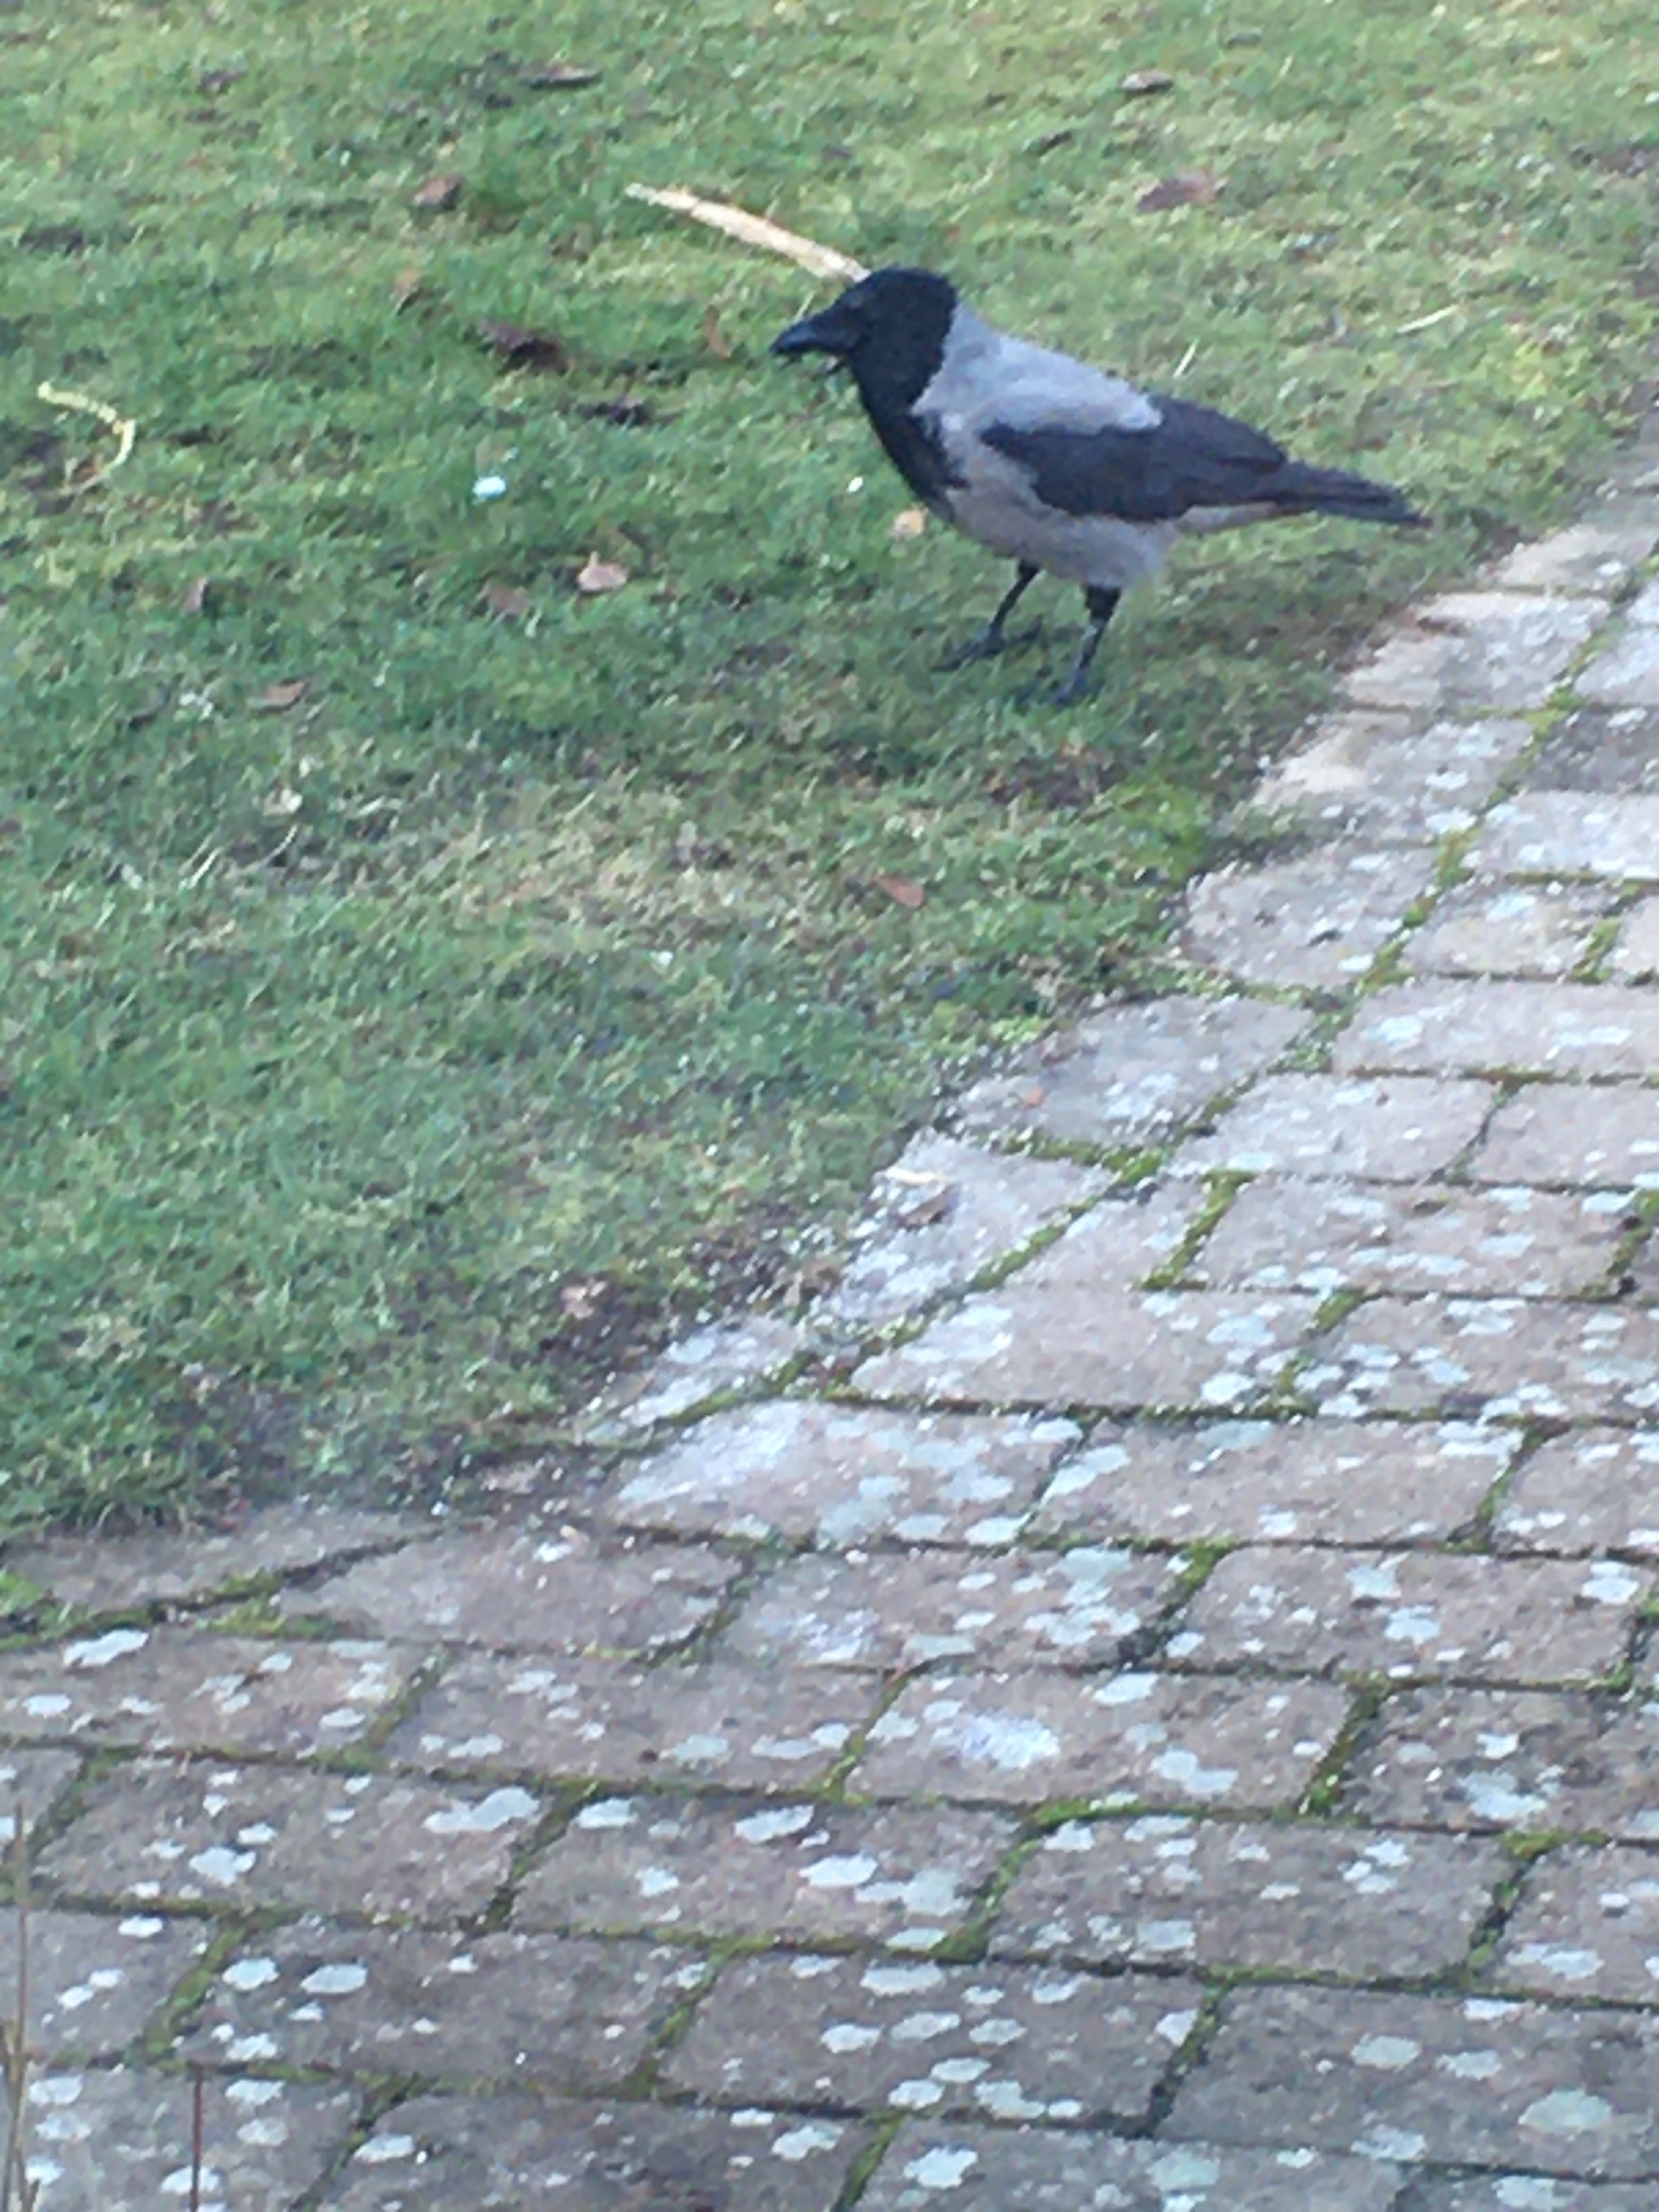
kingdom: Animalia
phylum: Chordata
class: Aves
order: Passeriformes
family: Corvidae
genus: Corvus
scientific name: Corvus cornix
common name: Gråkrage
